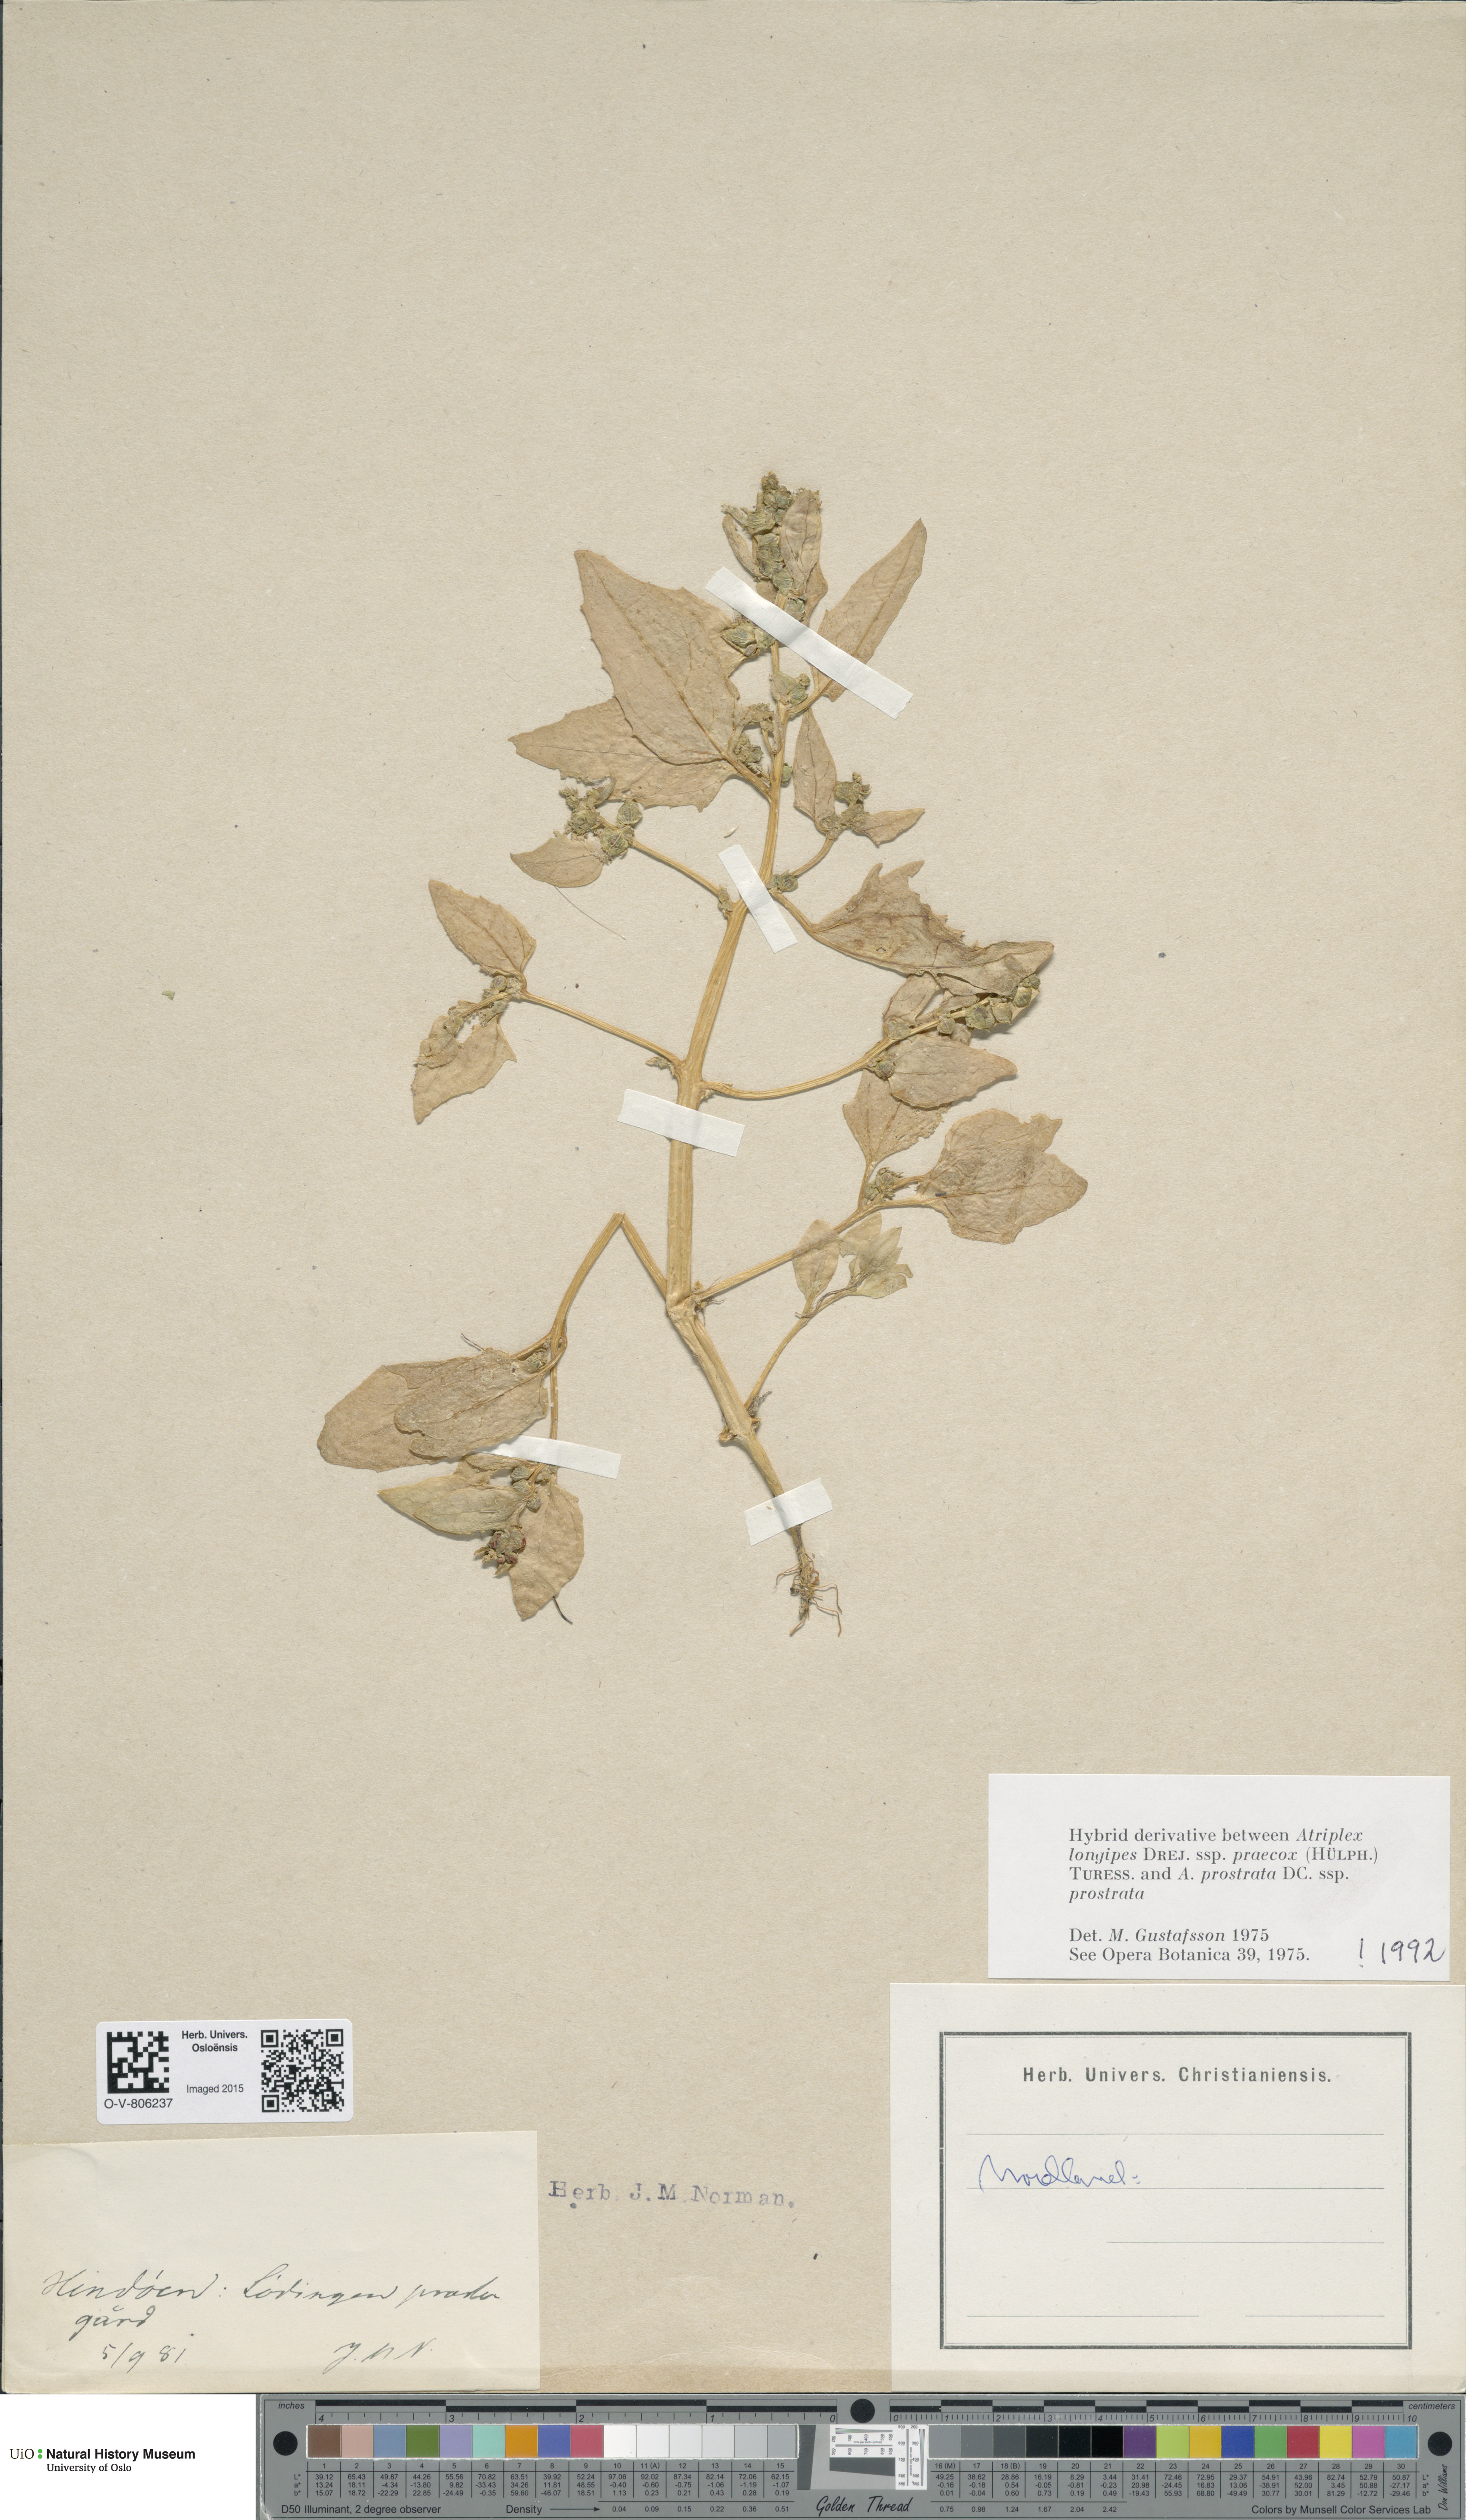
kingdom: Plantae
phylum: Tracheophyta
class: Magnoliopsida
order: Caryophyllales
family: Amaranthaceae
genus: Atriplex
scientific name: Atriplex
